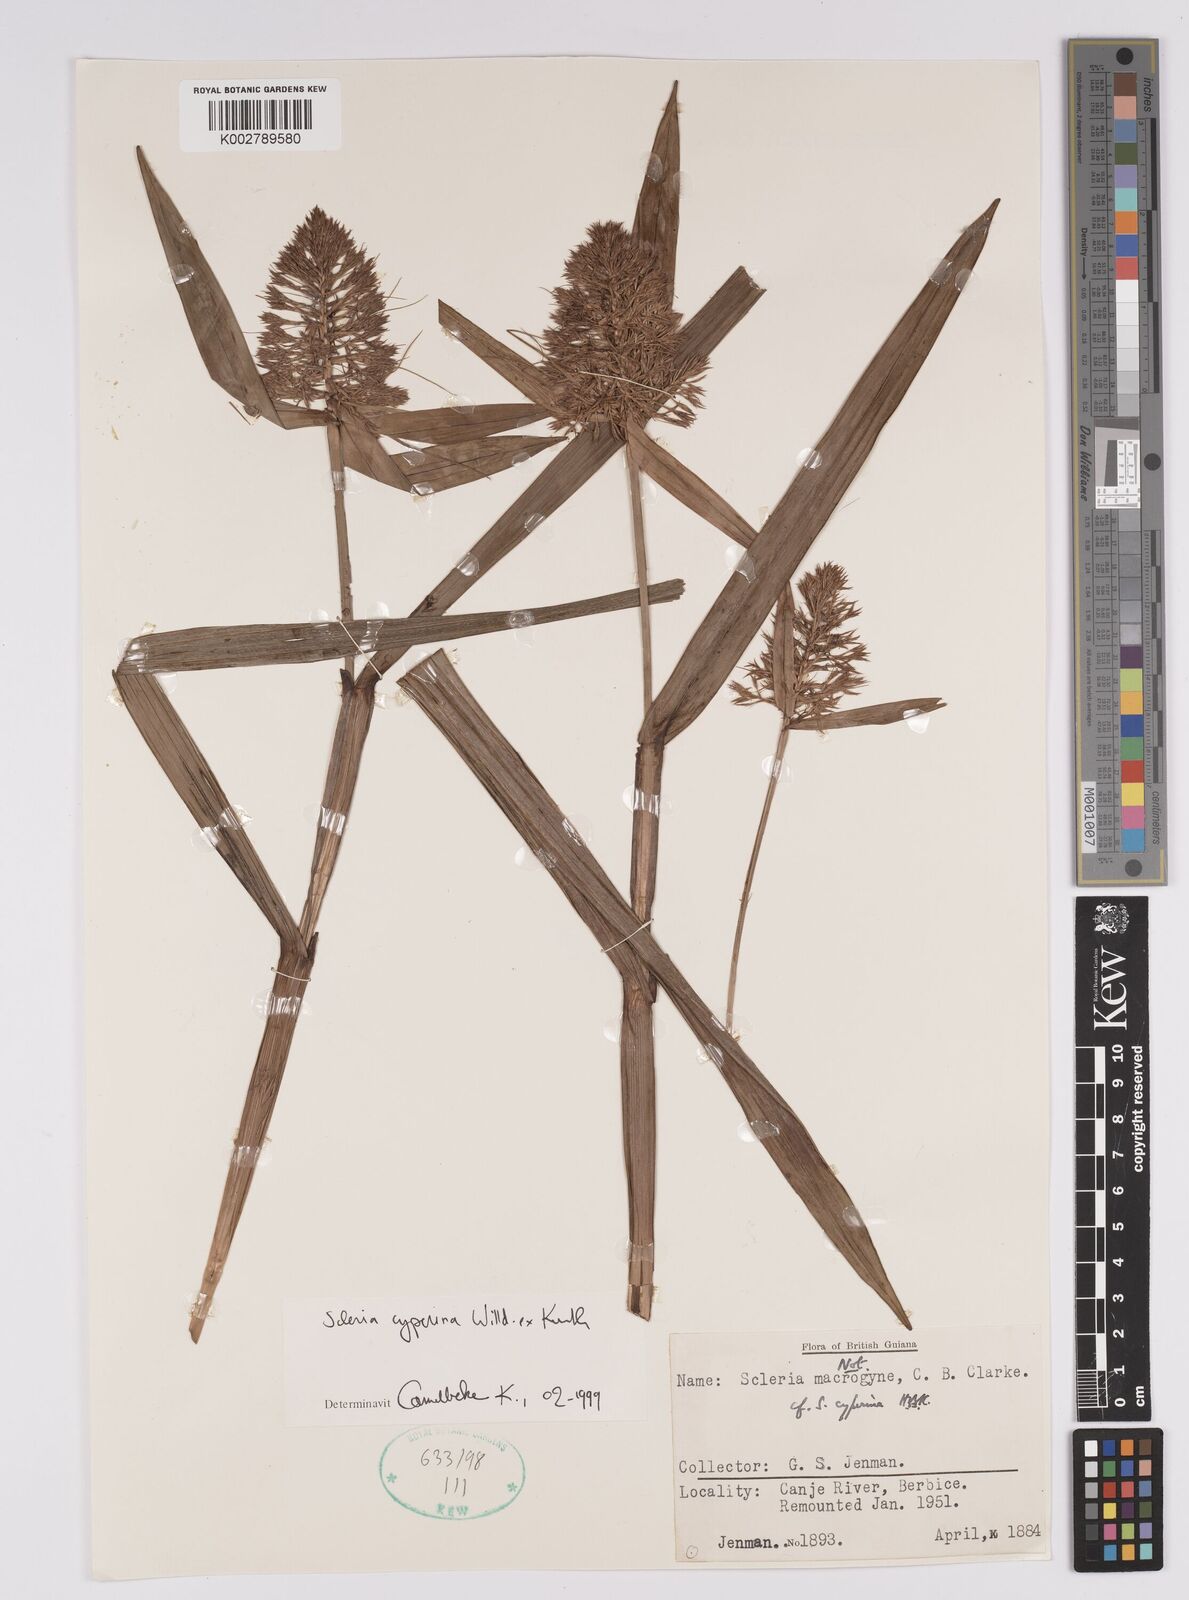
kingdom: Plantae
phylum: Tracheophyta
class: Liliopsida
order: Poales
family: Cyperaceae
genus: Scleria
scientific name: Scleria cyperina
